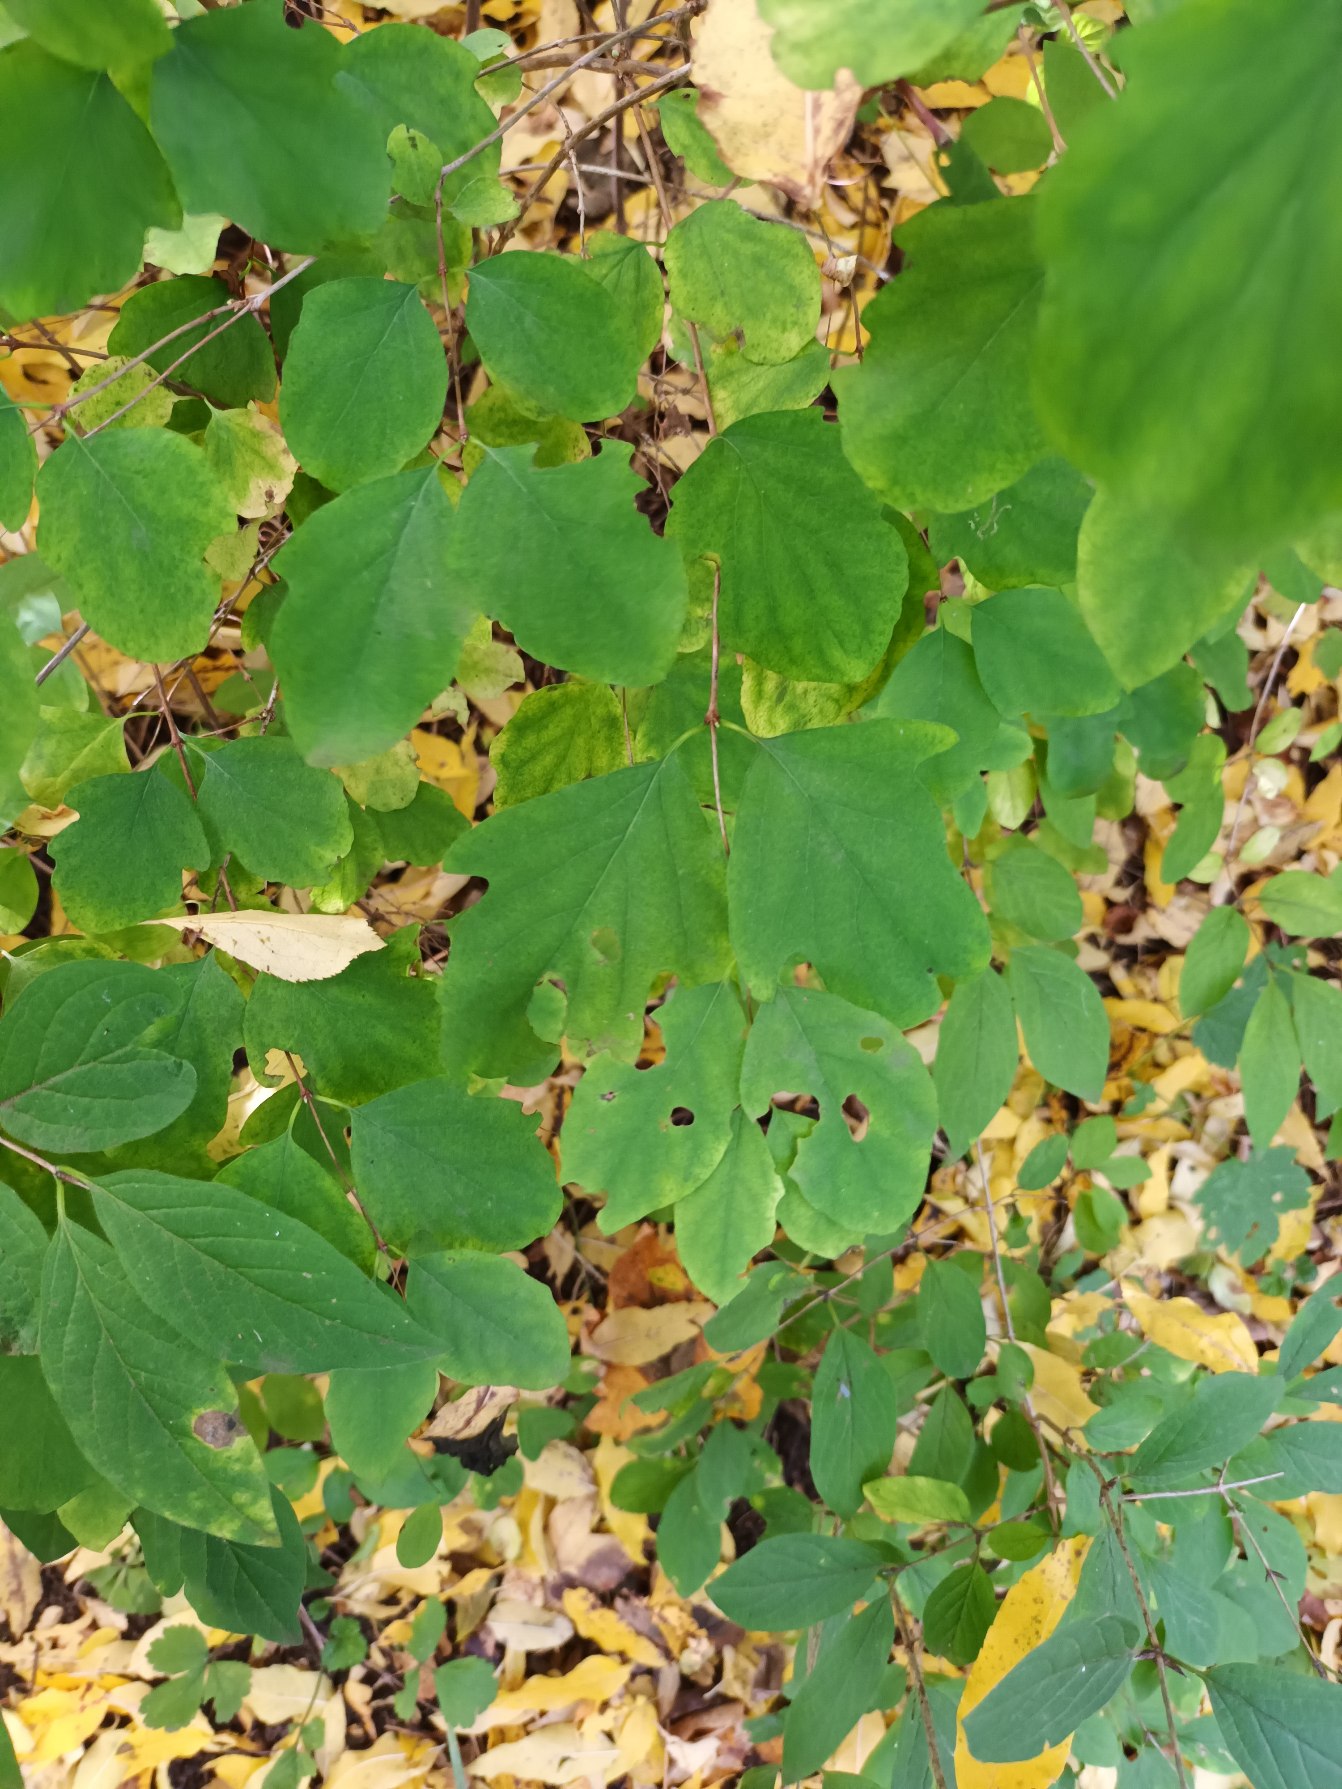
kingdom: Plantae
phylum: Tracheophyta
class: Magnoliopsida
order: Dipsacales
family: Caprifoliaceae
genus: Symphoricarpos
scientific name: Symphoricarpos albus
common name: Almindelig snebær
